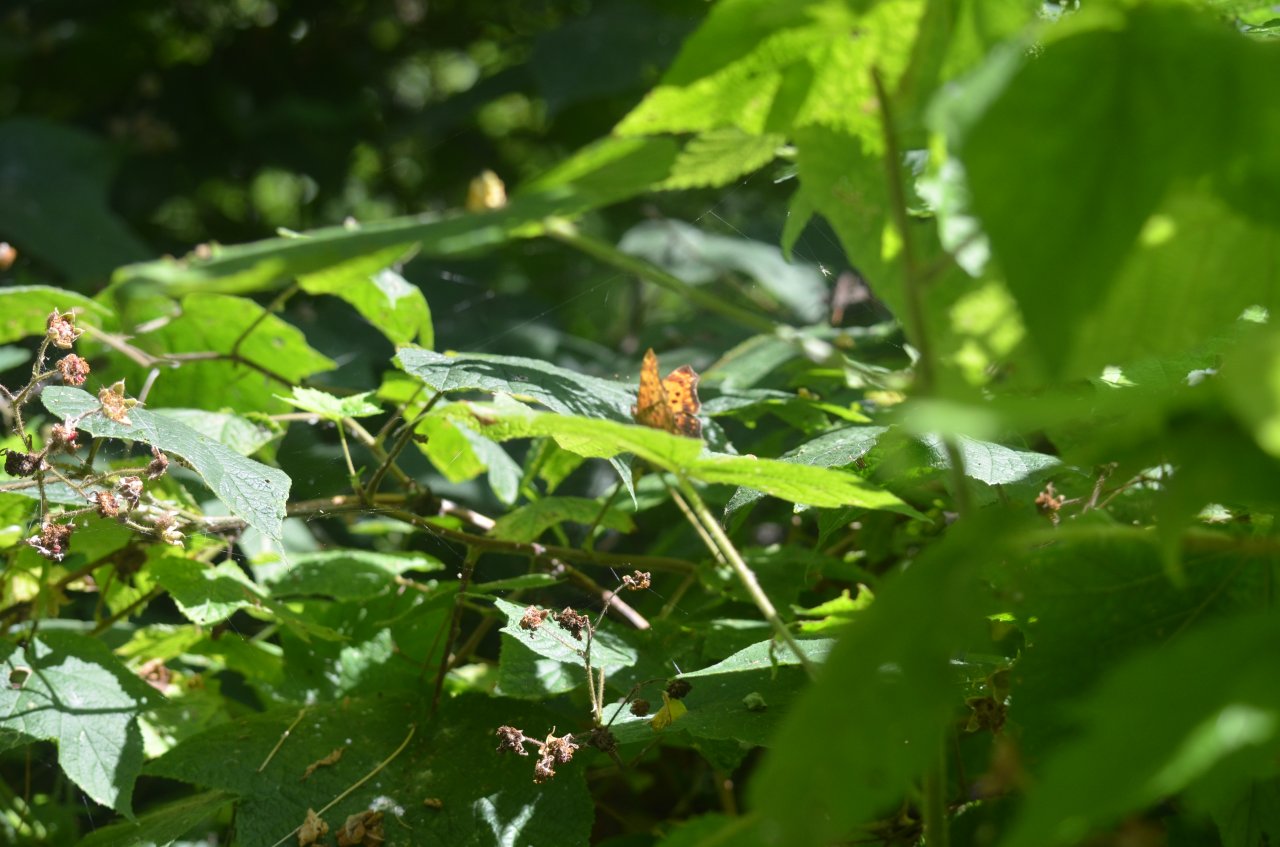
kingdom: Animalia
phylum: Arthropoda
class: Insecta
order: Lepidoptera
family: Nymphalidae
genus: Polygonia
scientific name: Polygonia comma
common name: Eastern Comma
